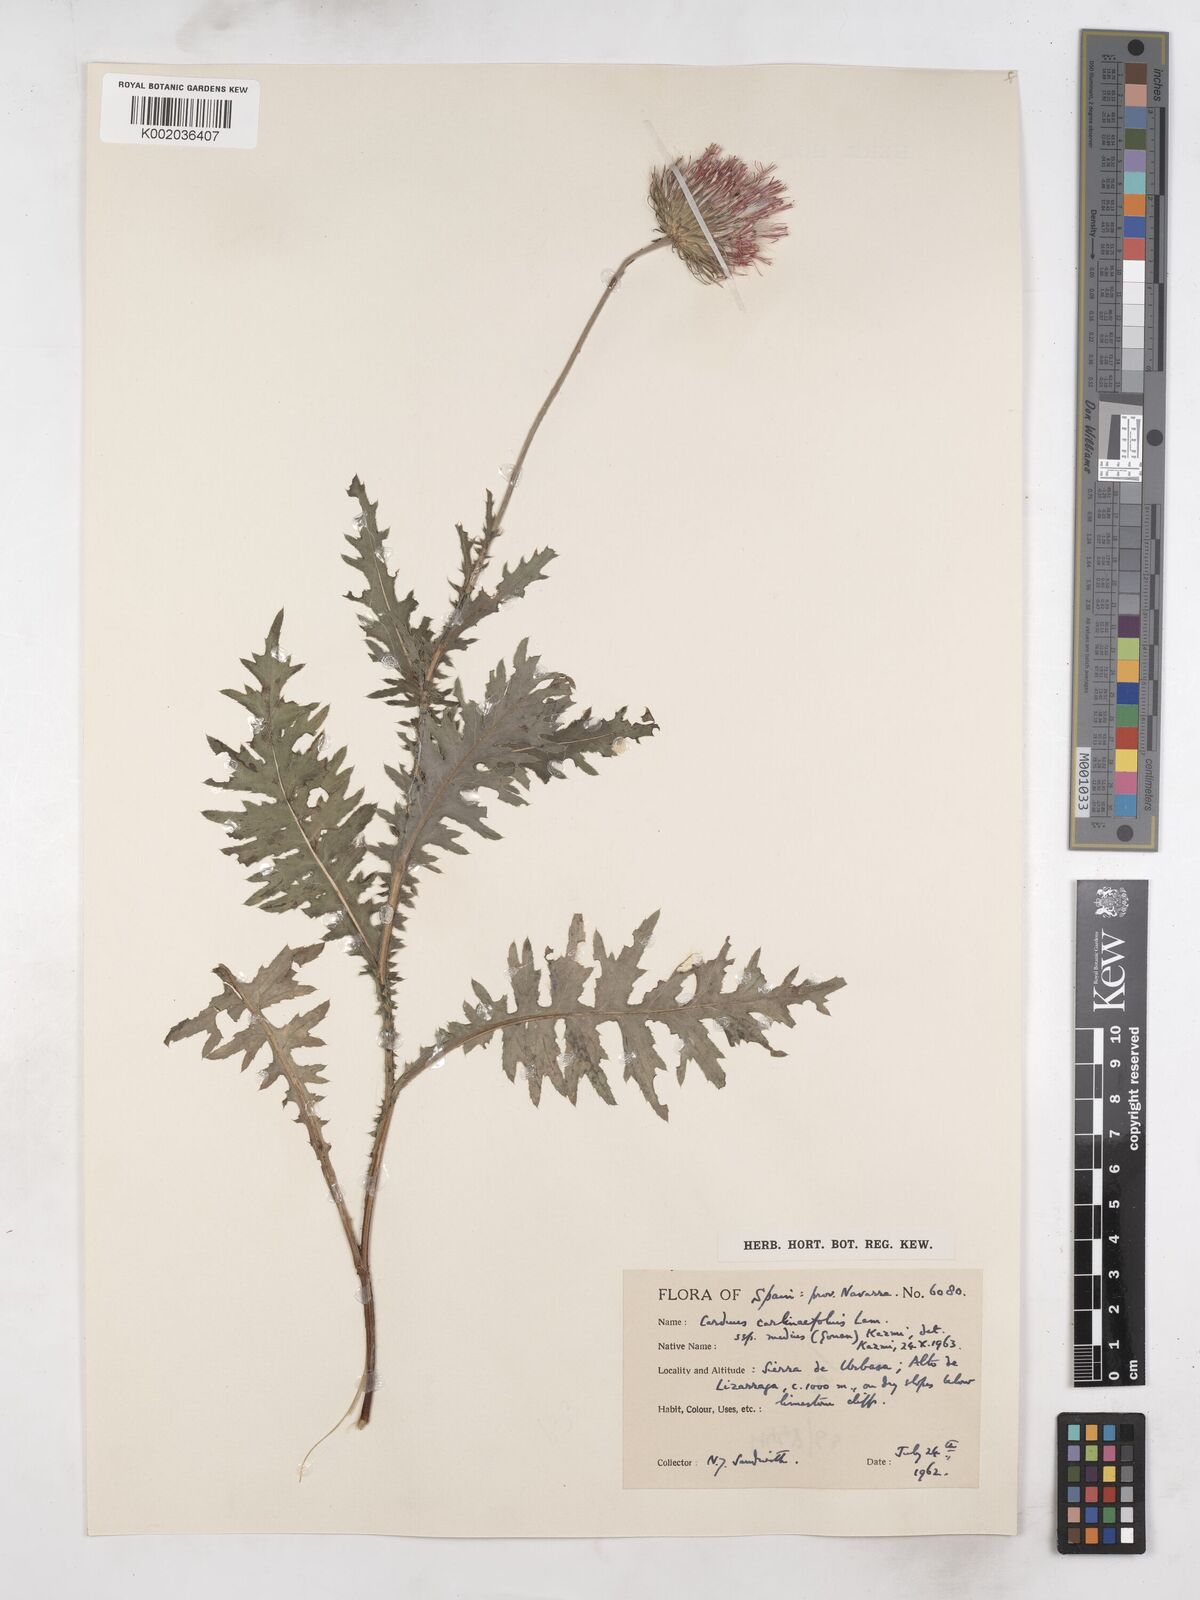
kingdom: Plantae
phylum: Tracheophyta
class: Magnoliopsida
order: Asterales
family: Asteraceae
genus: Carduus
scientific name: Carduus defloratus
